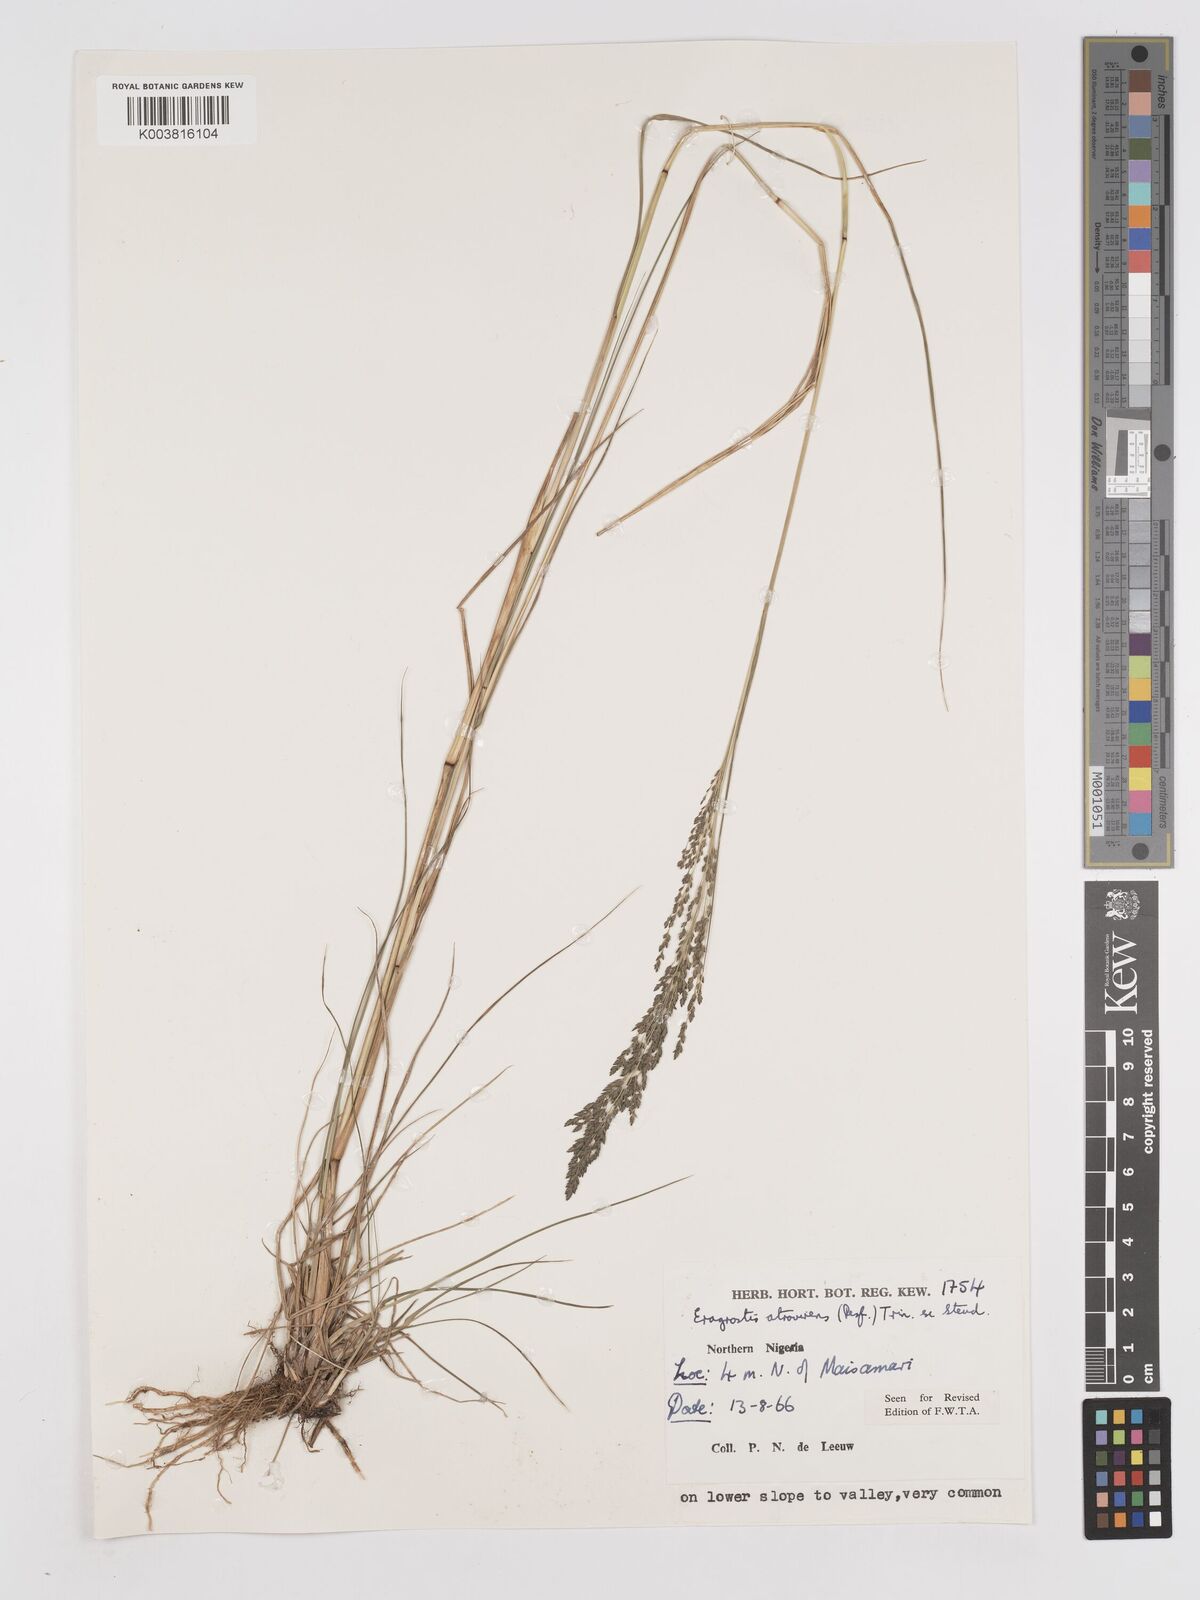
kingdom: Plantae
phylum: Tracheophyta
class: Liliopsida
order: Poales
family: Poaceae
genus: Eragrostis
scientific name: Eragrostis atrovirens
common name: Thalia lovegrass
